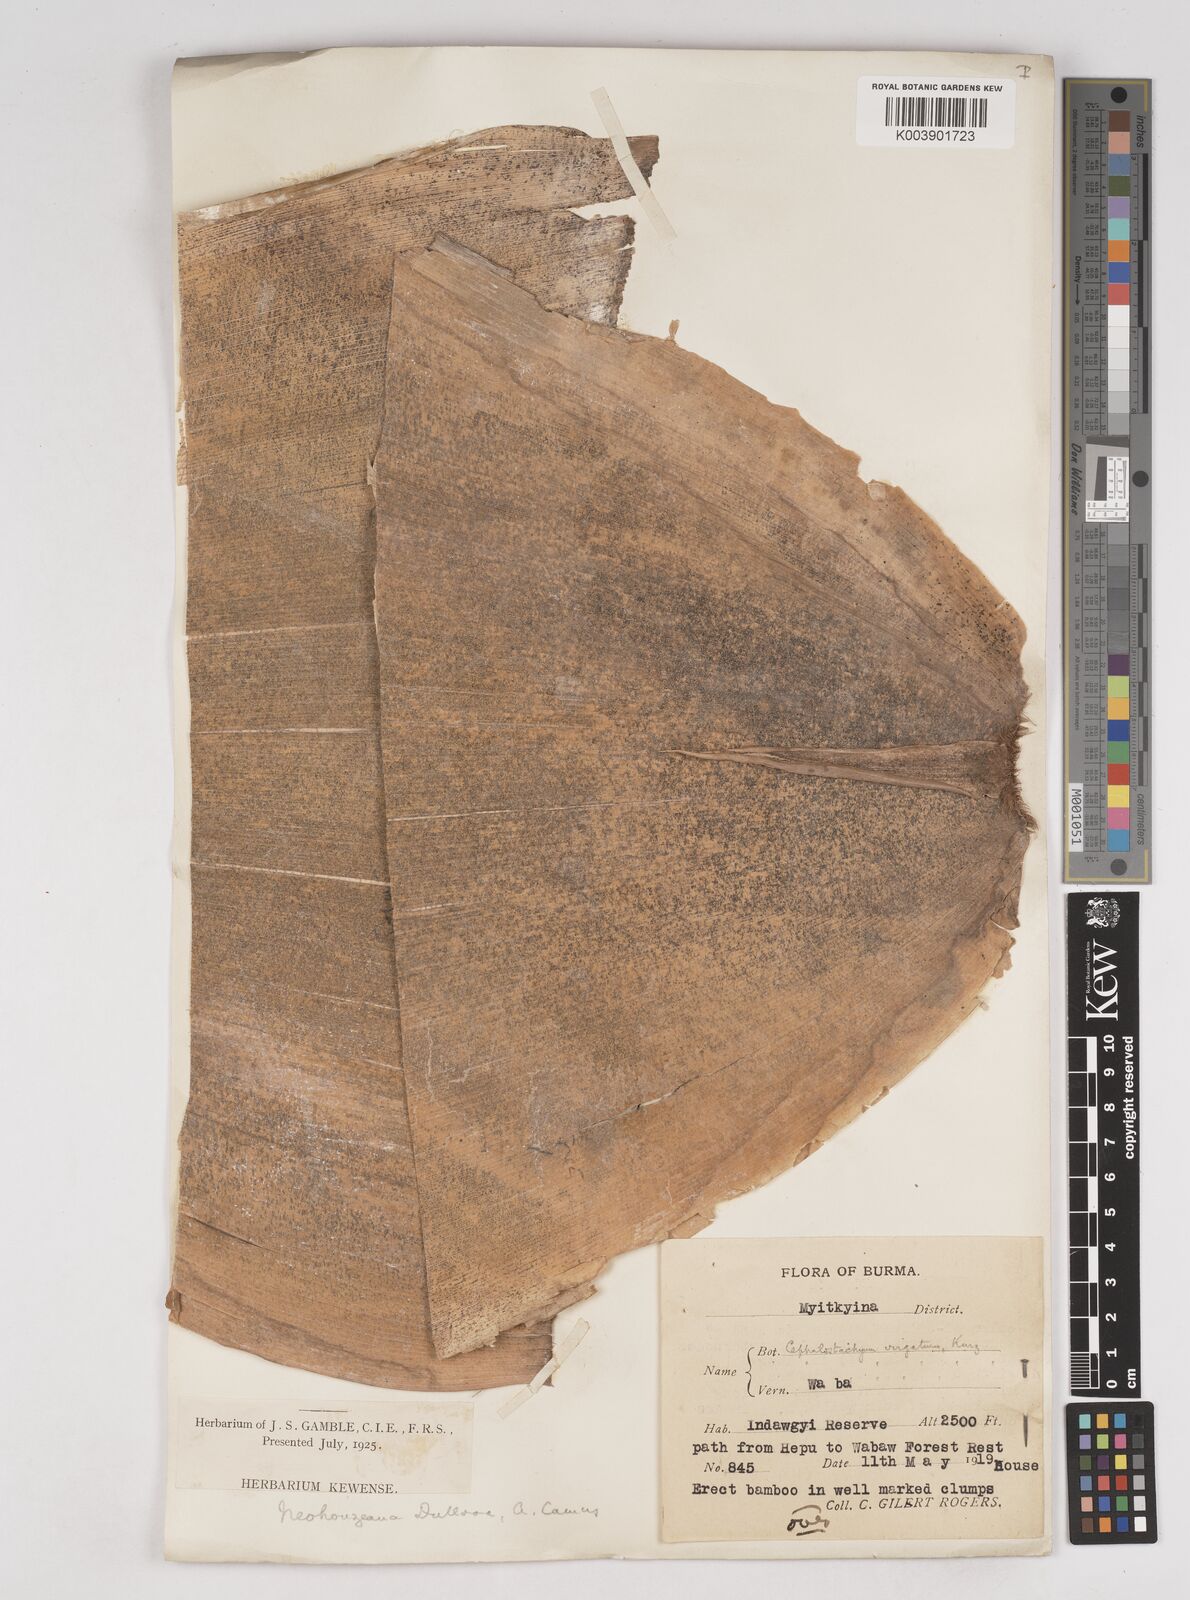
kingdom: Plantae
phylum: Tracheophyta
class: Liliopsida
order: Poales
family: Poaceae
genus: Schizostachyum
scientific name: Schizostachyum dullooa
